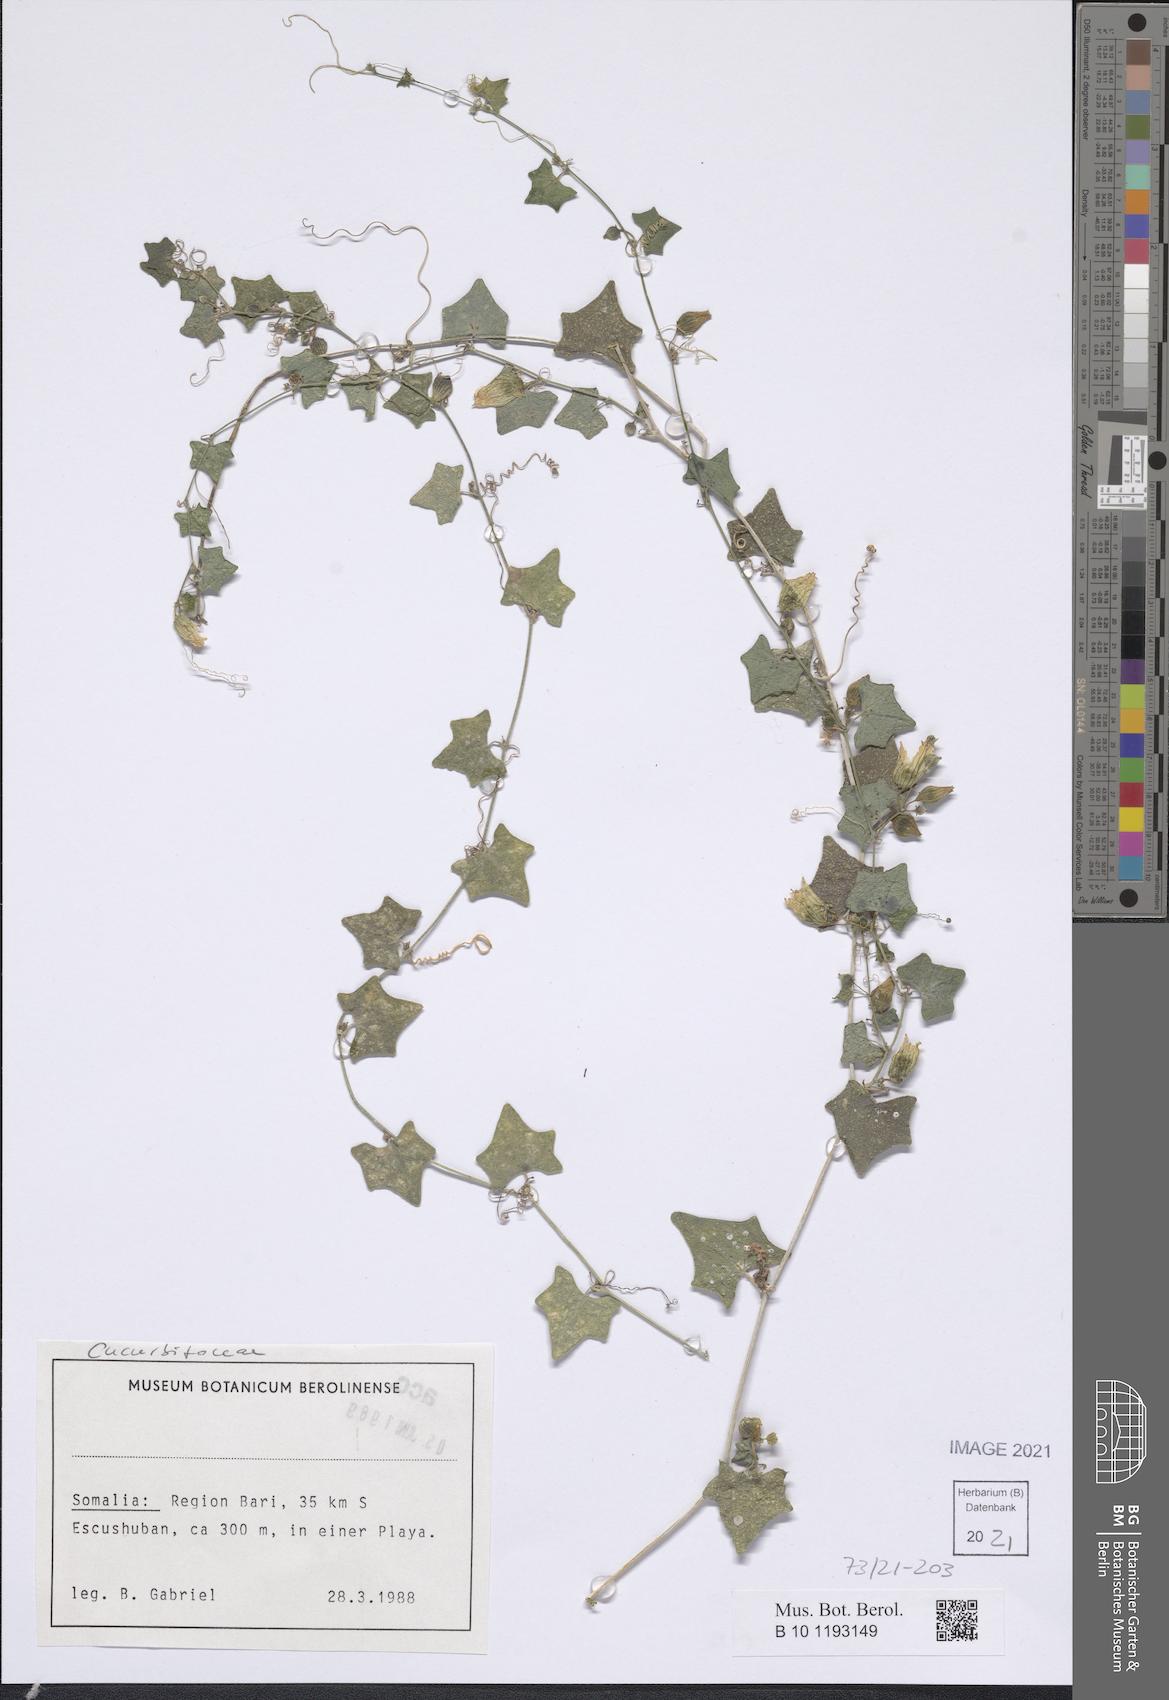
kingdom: Plantae
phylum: Tracheophyta
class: Magnoliopsida
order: Cucurbitales
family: Cucurbitaceae
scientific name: Cucurbitaceae
